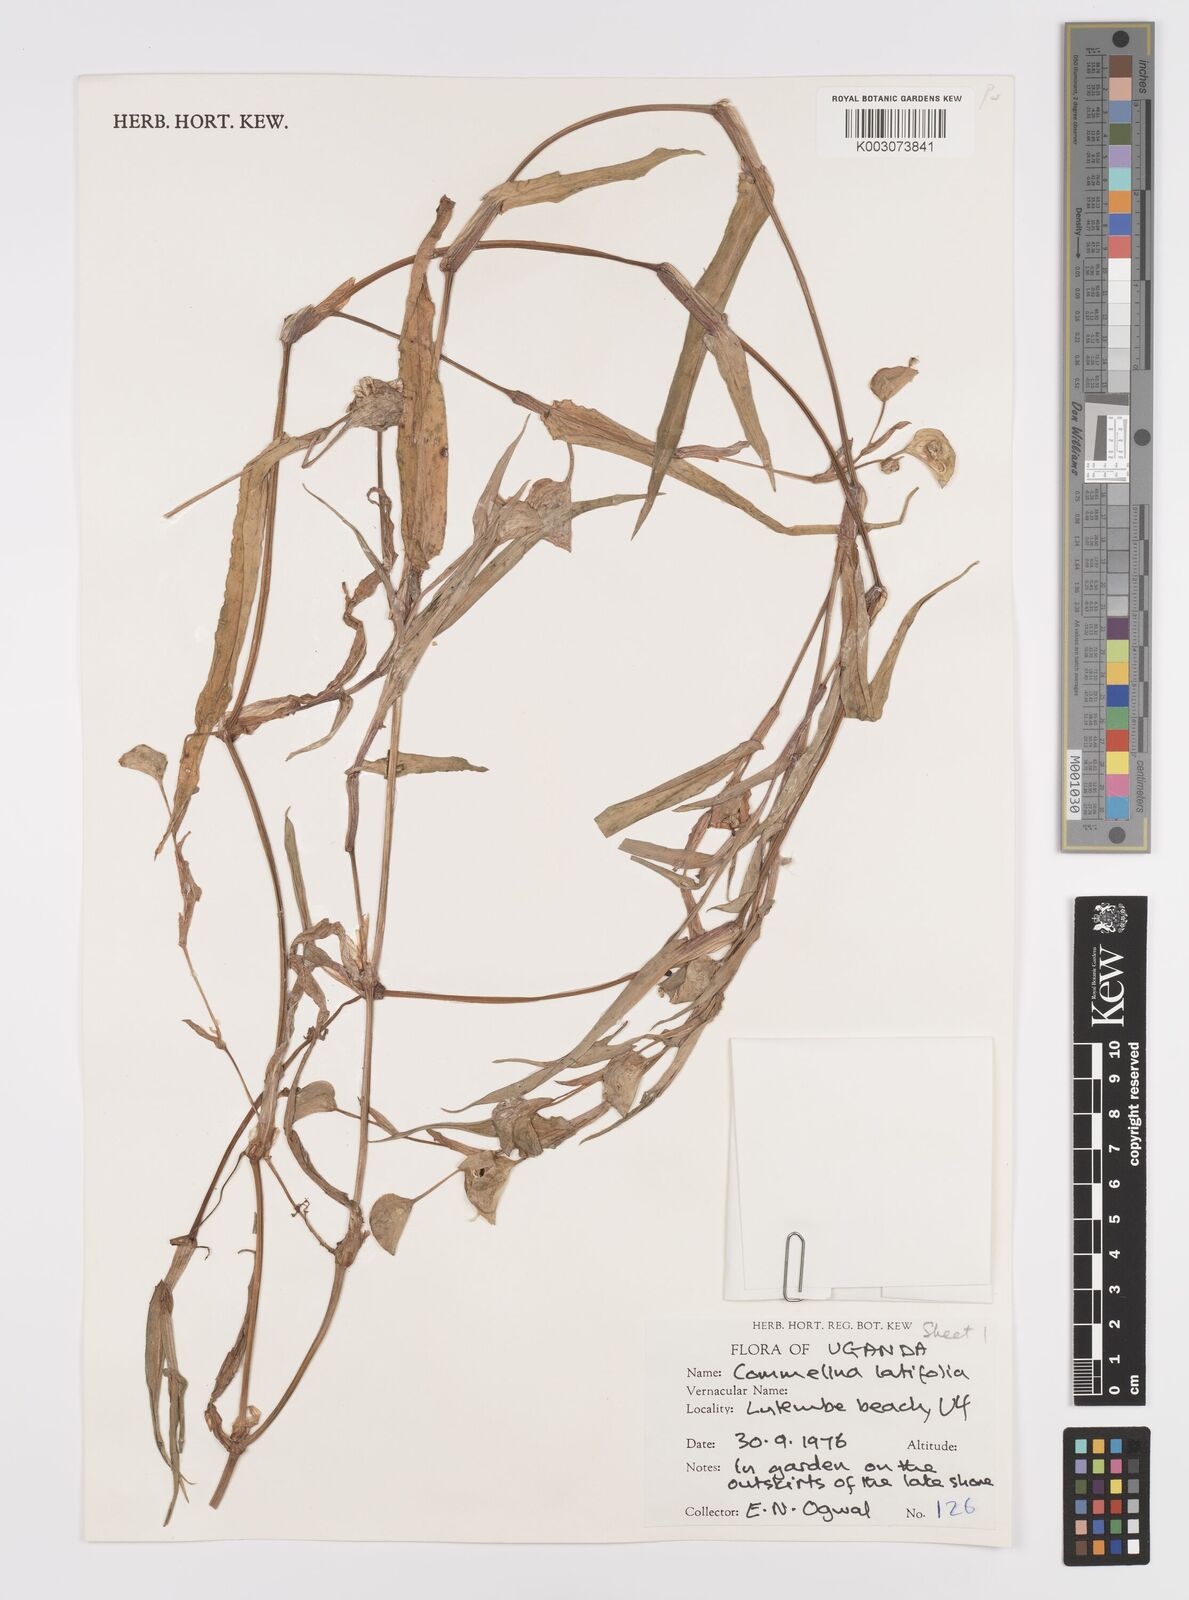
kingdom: Plantae
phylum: Tracheophyta
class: Liliopsida
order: Commelinales
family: Commelinaceae
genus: Commelina
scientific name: Commelina latifolia
